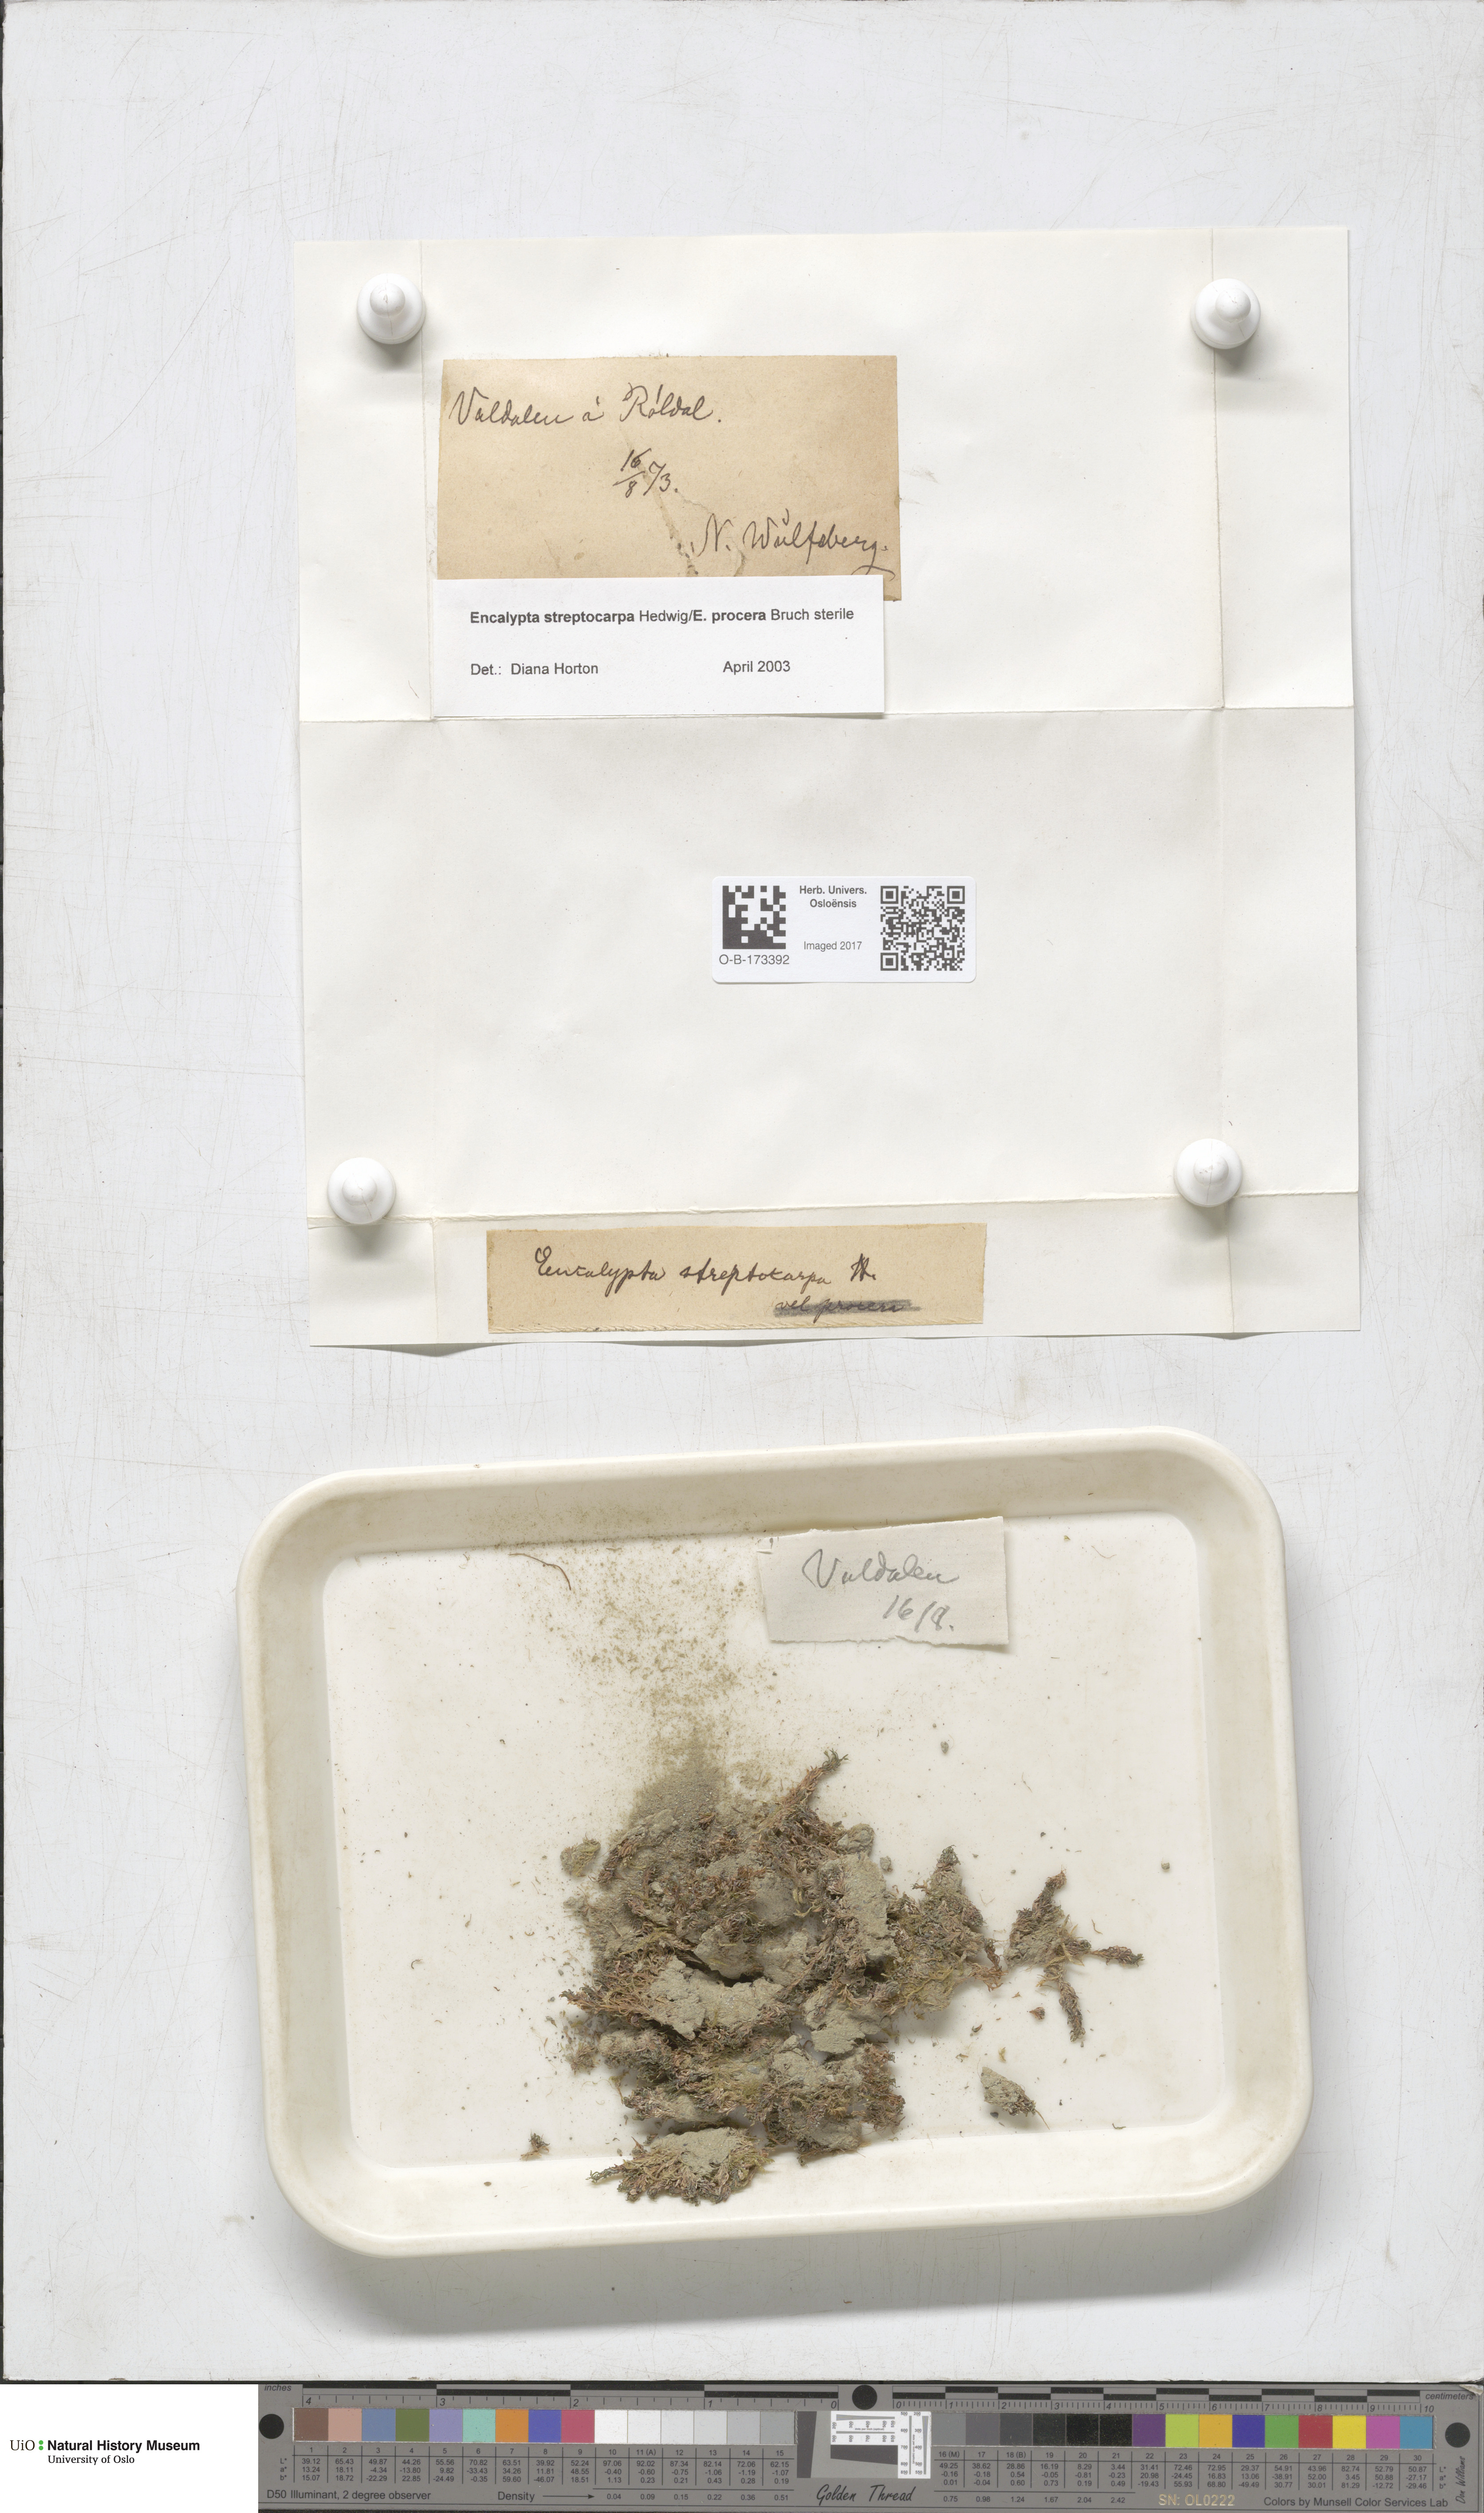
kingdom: Plantae
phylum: Bryophyta
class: Bryopsida
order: Encalyptales
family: Encalyptaceae
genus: Encalypta
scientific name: Encalypta
